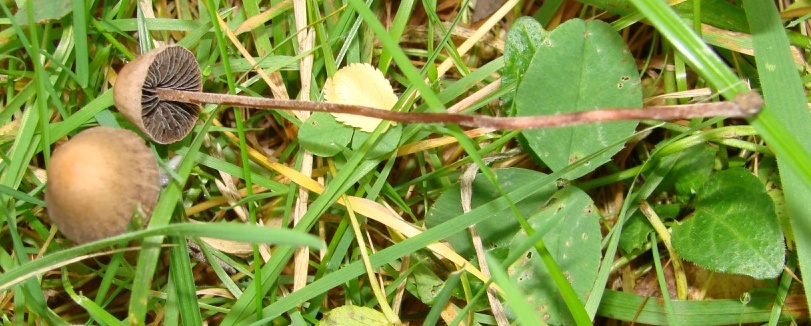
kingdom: Fungi
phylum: Basidiomycota
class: Agaricomycetes
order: Agaricales
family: Bolbitiaceae
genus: Panaeolus
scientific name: Panaeolus acuminatus
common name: høj glanshat
